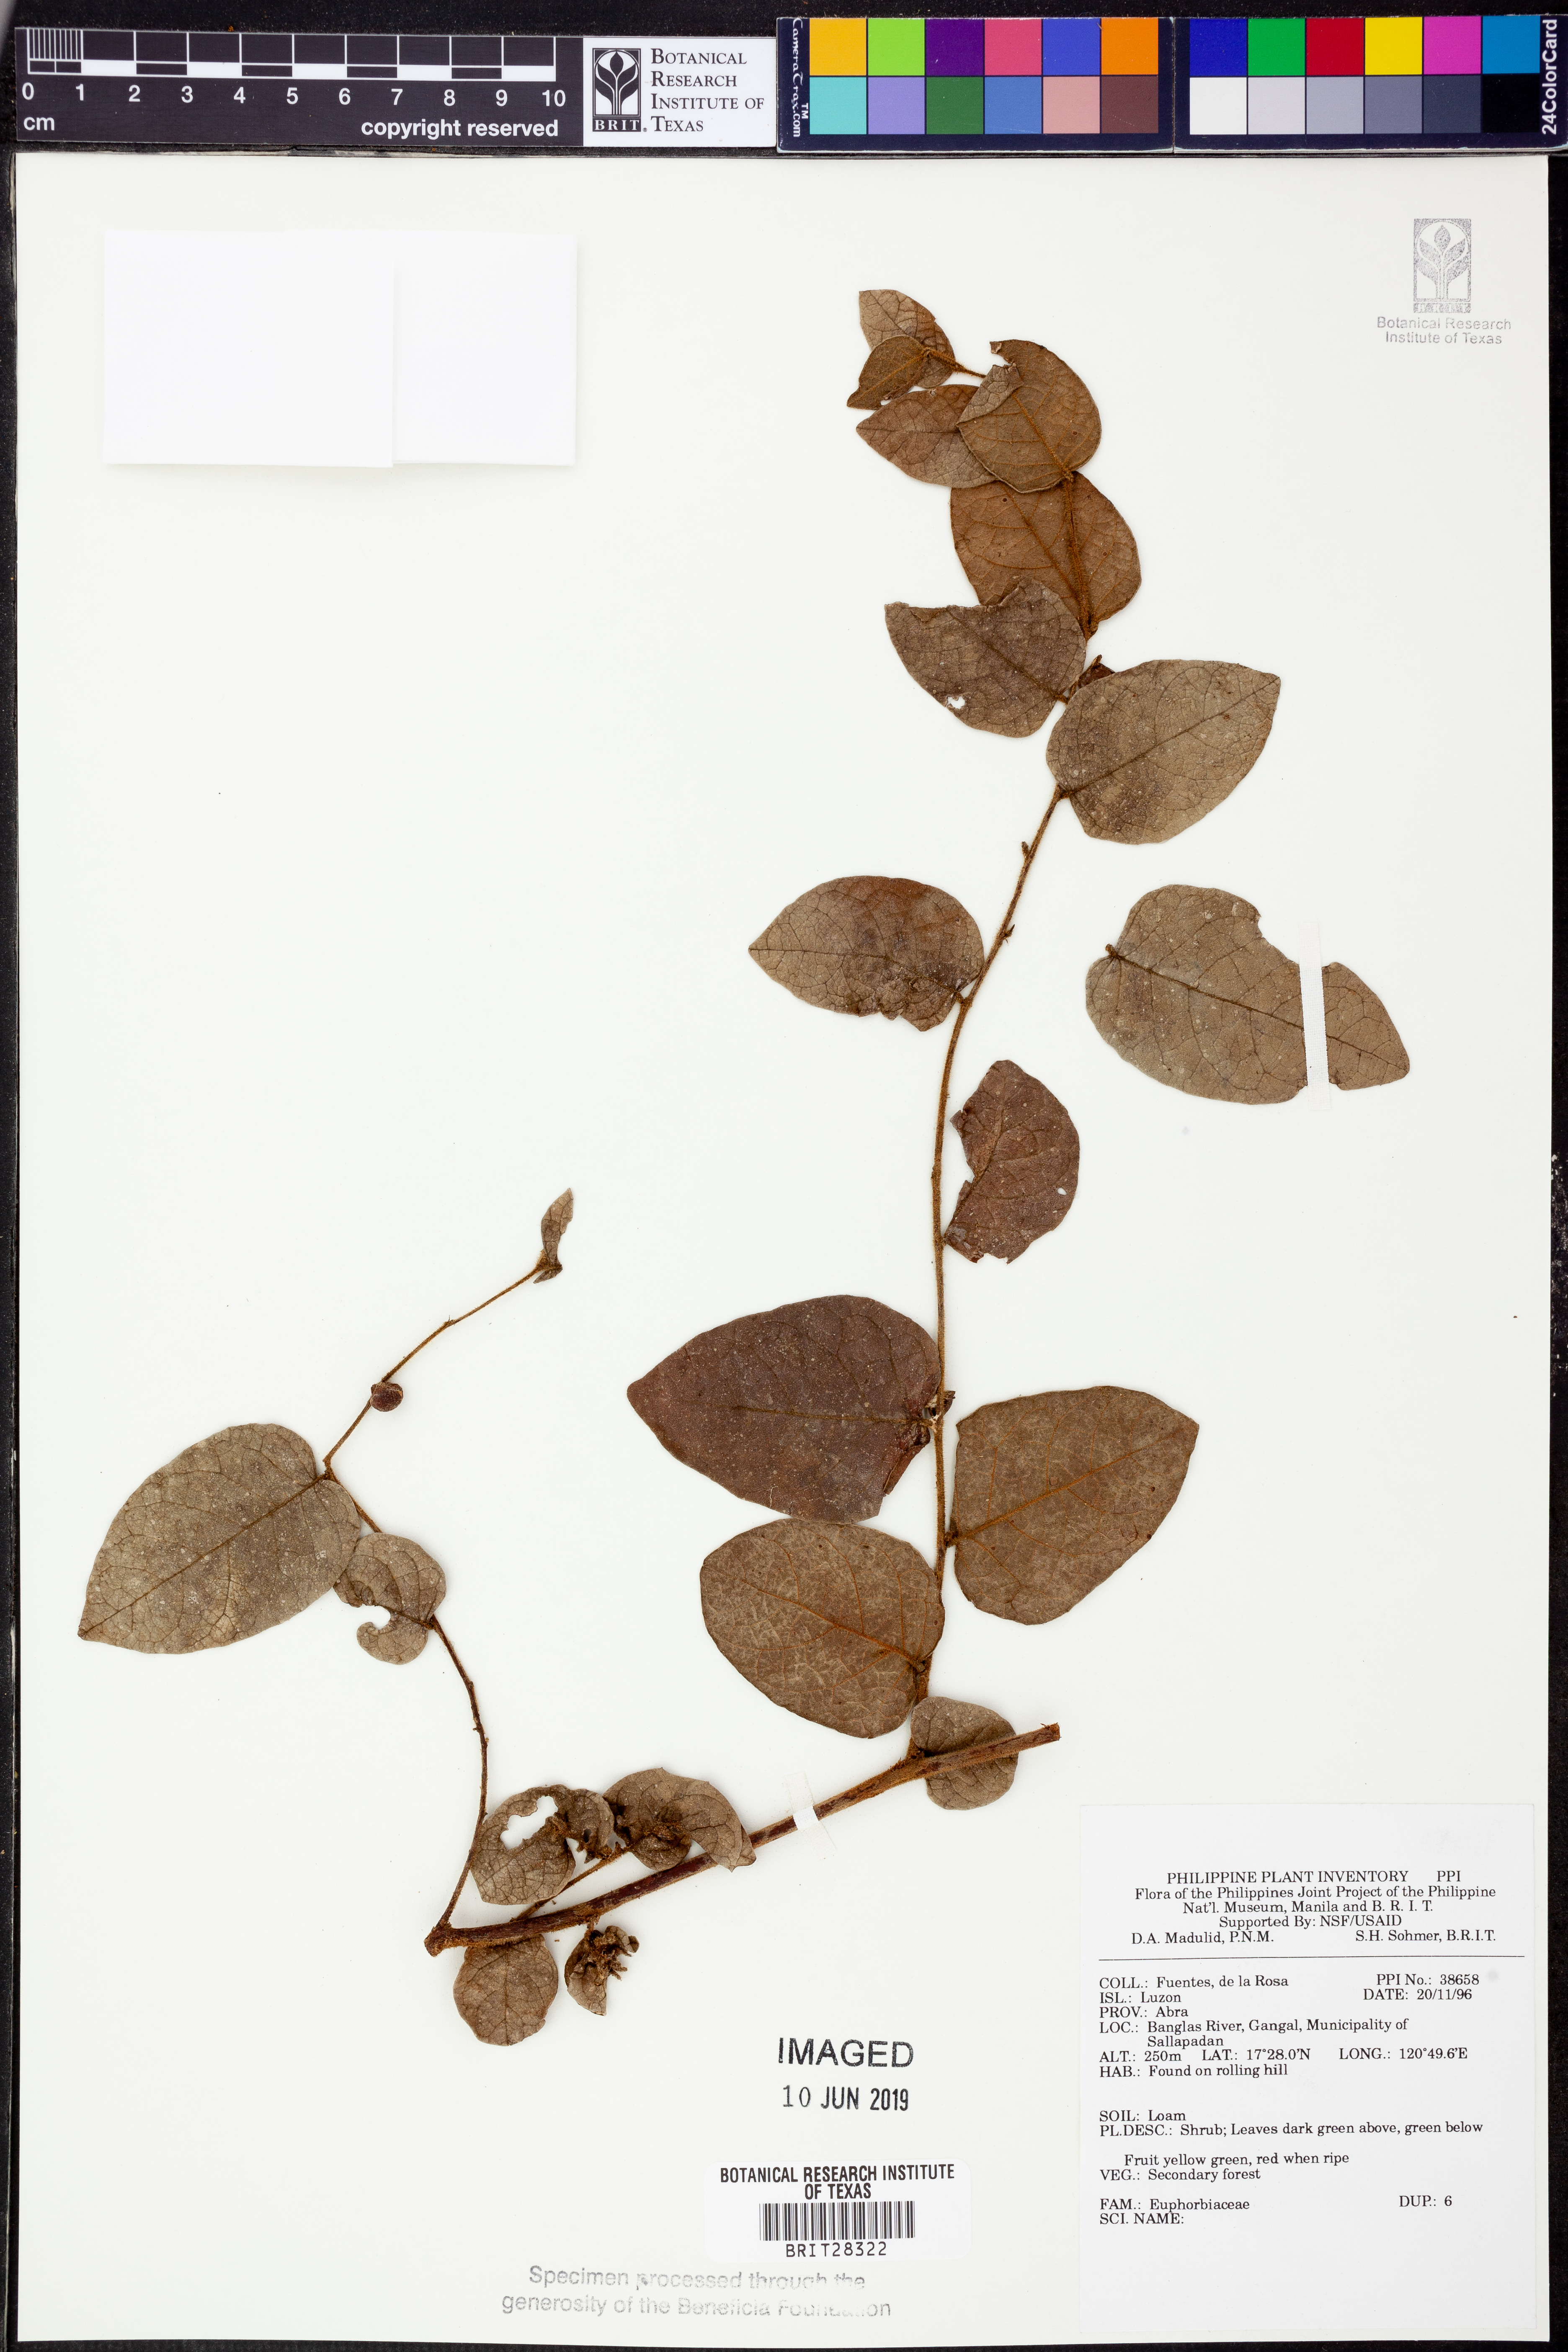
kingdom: Plantae
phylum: Tracheophyta
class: Magnoliopsida
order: Malpighiales
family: Euphorbiaceae
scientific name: Euphorbiaceae
